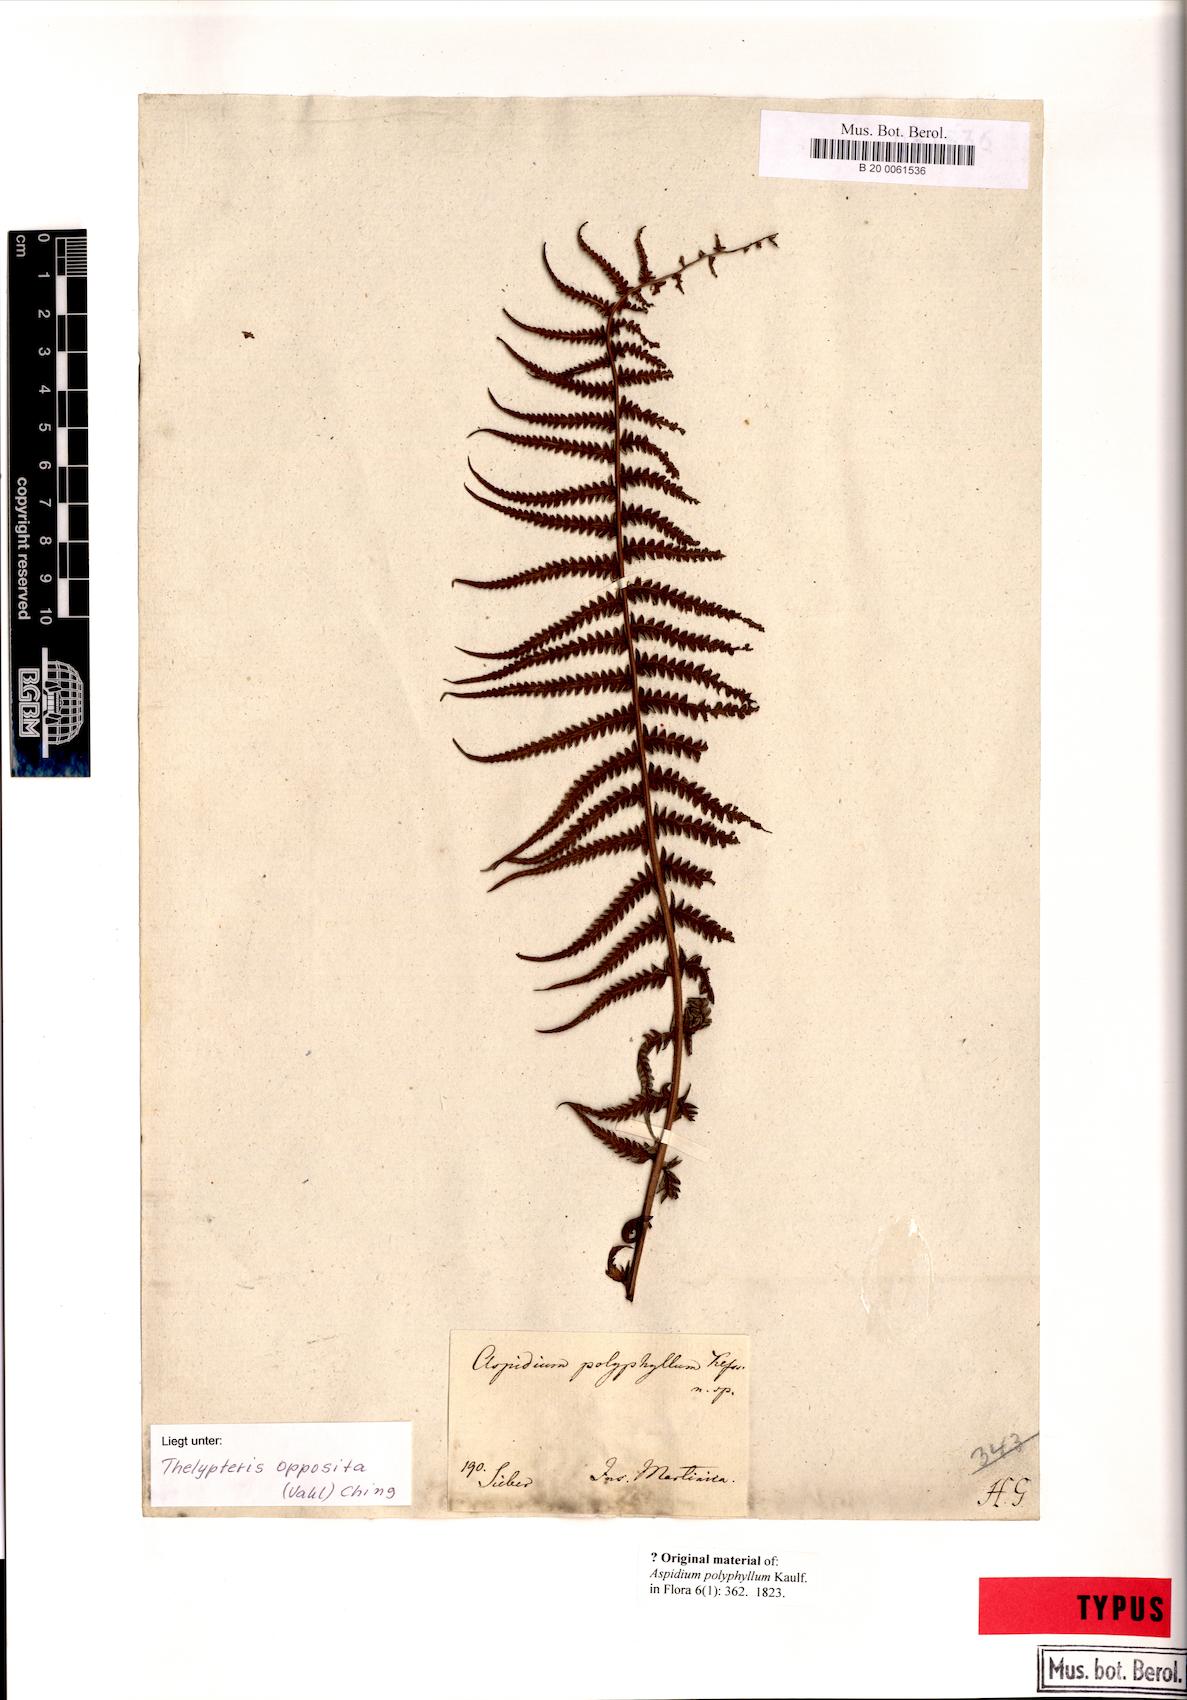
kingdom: Plantae
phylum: Tracheophyta
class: Polypodiopsida
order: Polypodiales
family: Thelypteridaceae
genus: Amauropelta
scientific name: Amauropelta opposita
